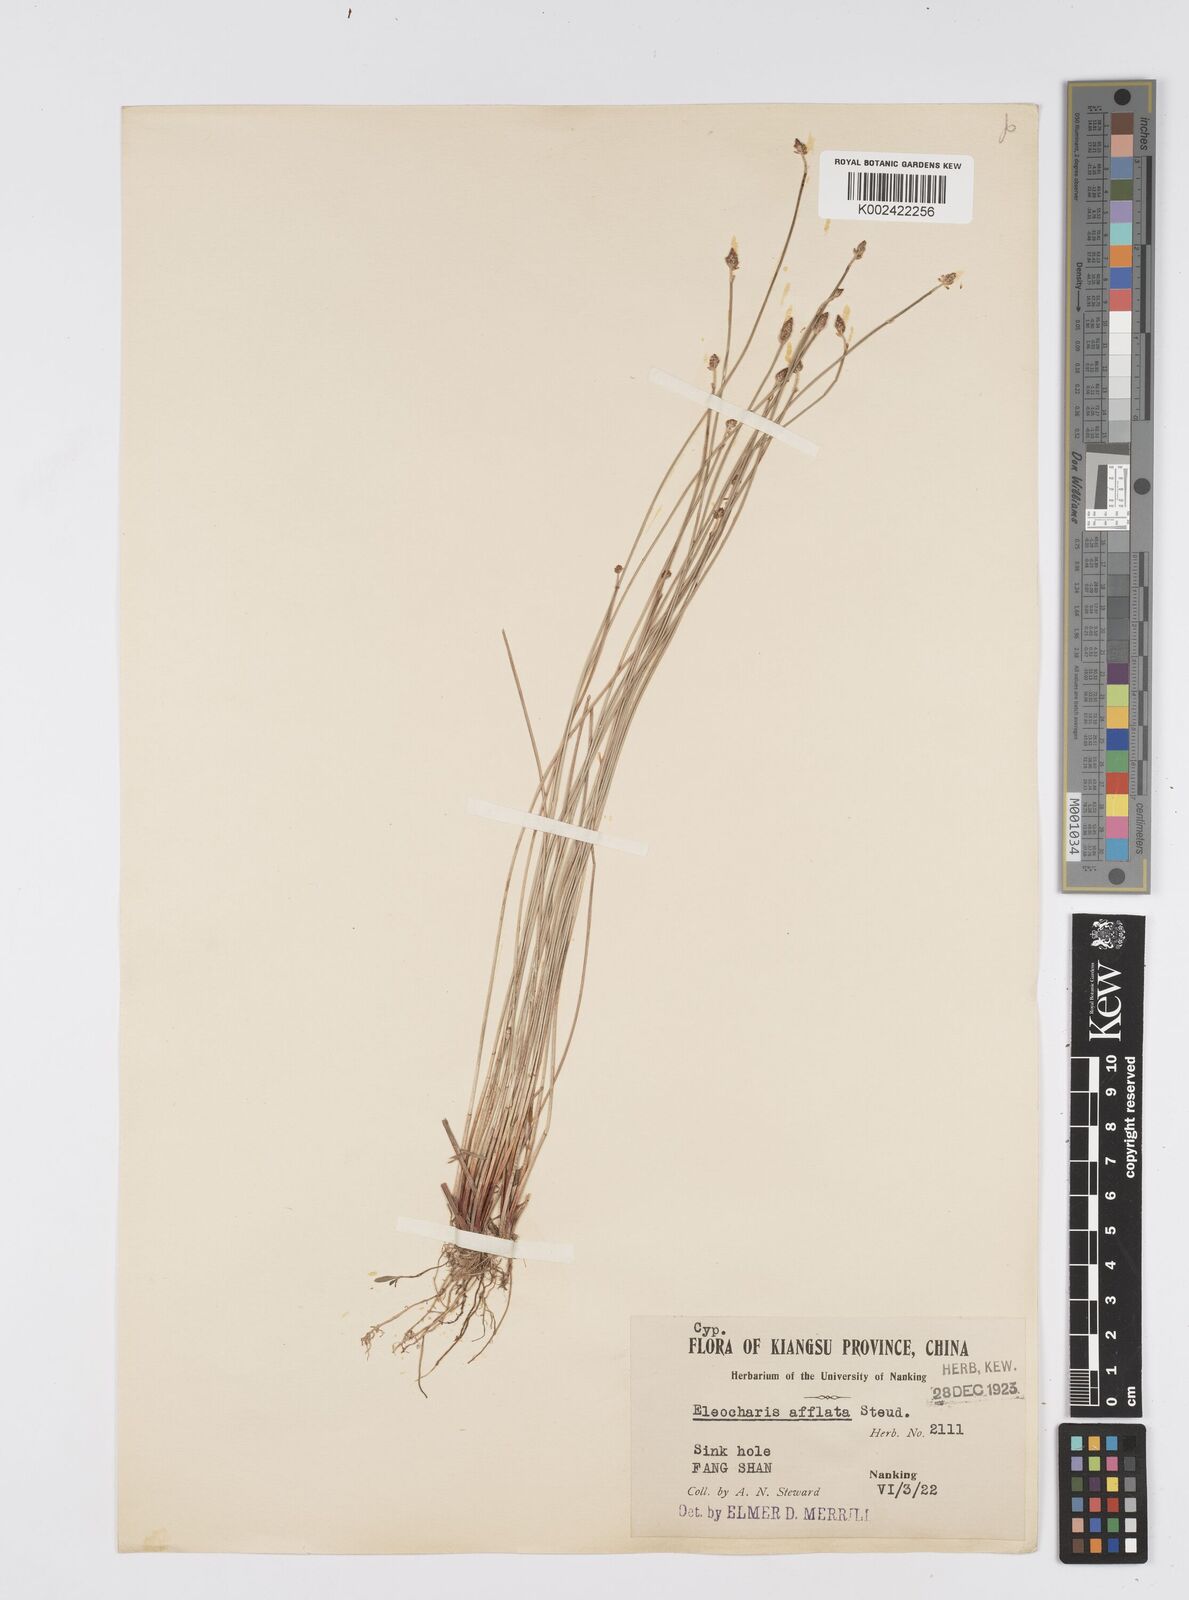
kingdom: Plantae
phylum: Tracheophyta
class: Liliopsida
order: Poales
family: Cyperaceae
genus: Eleocharis
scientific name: Eleocharis pellucida
